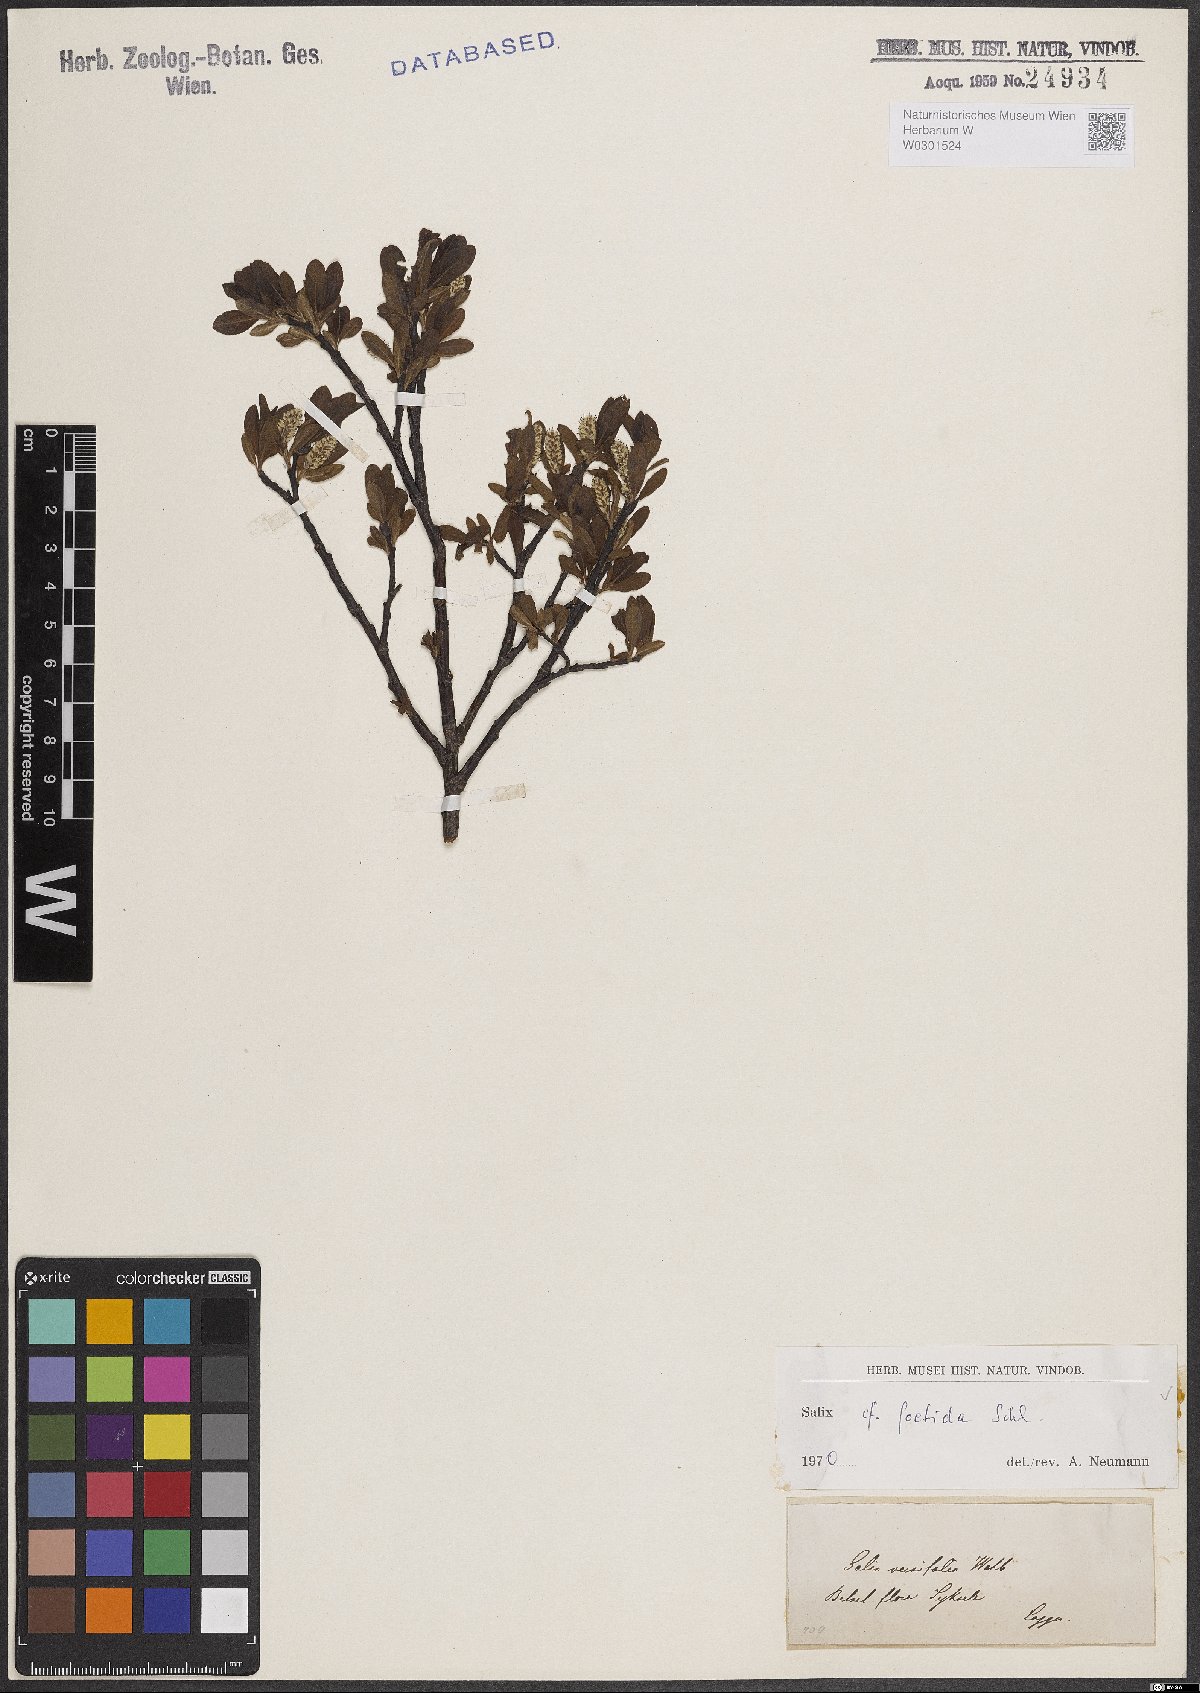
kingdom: Plantae
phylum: Tracheophyta
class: Magnoliopsida
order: Malpighiales
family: Salicaceae
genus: Salix
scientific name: Salix foetida
